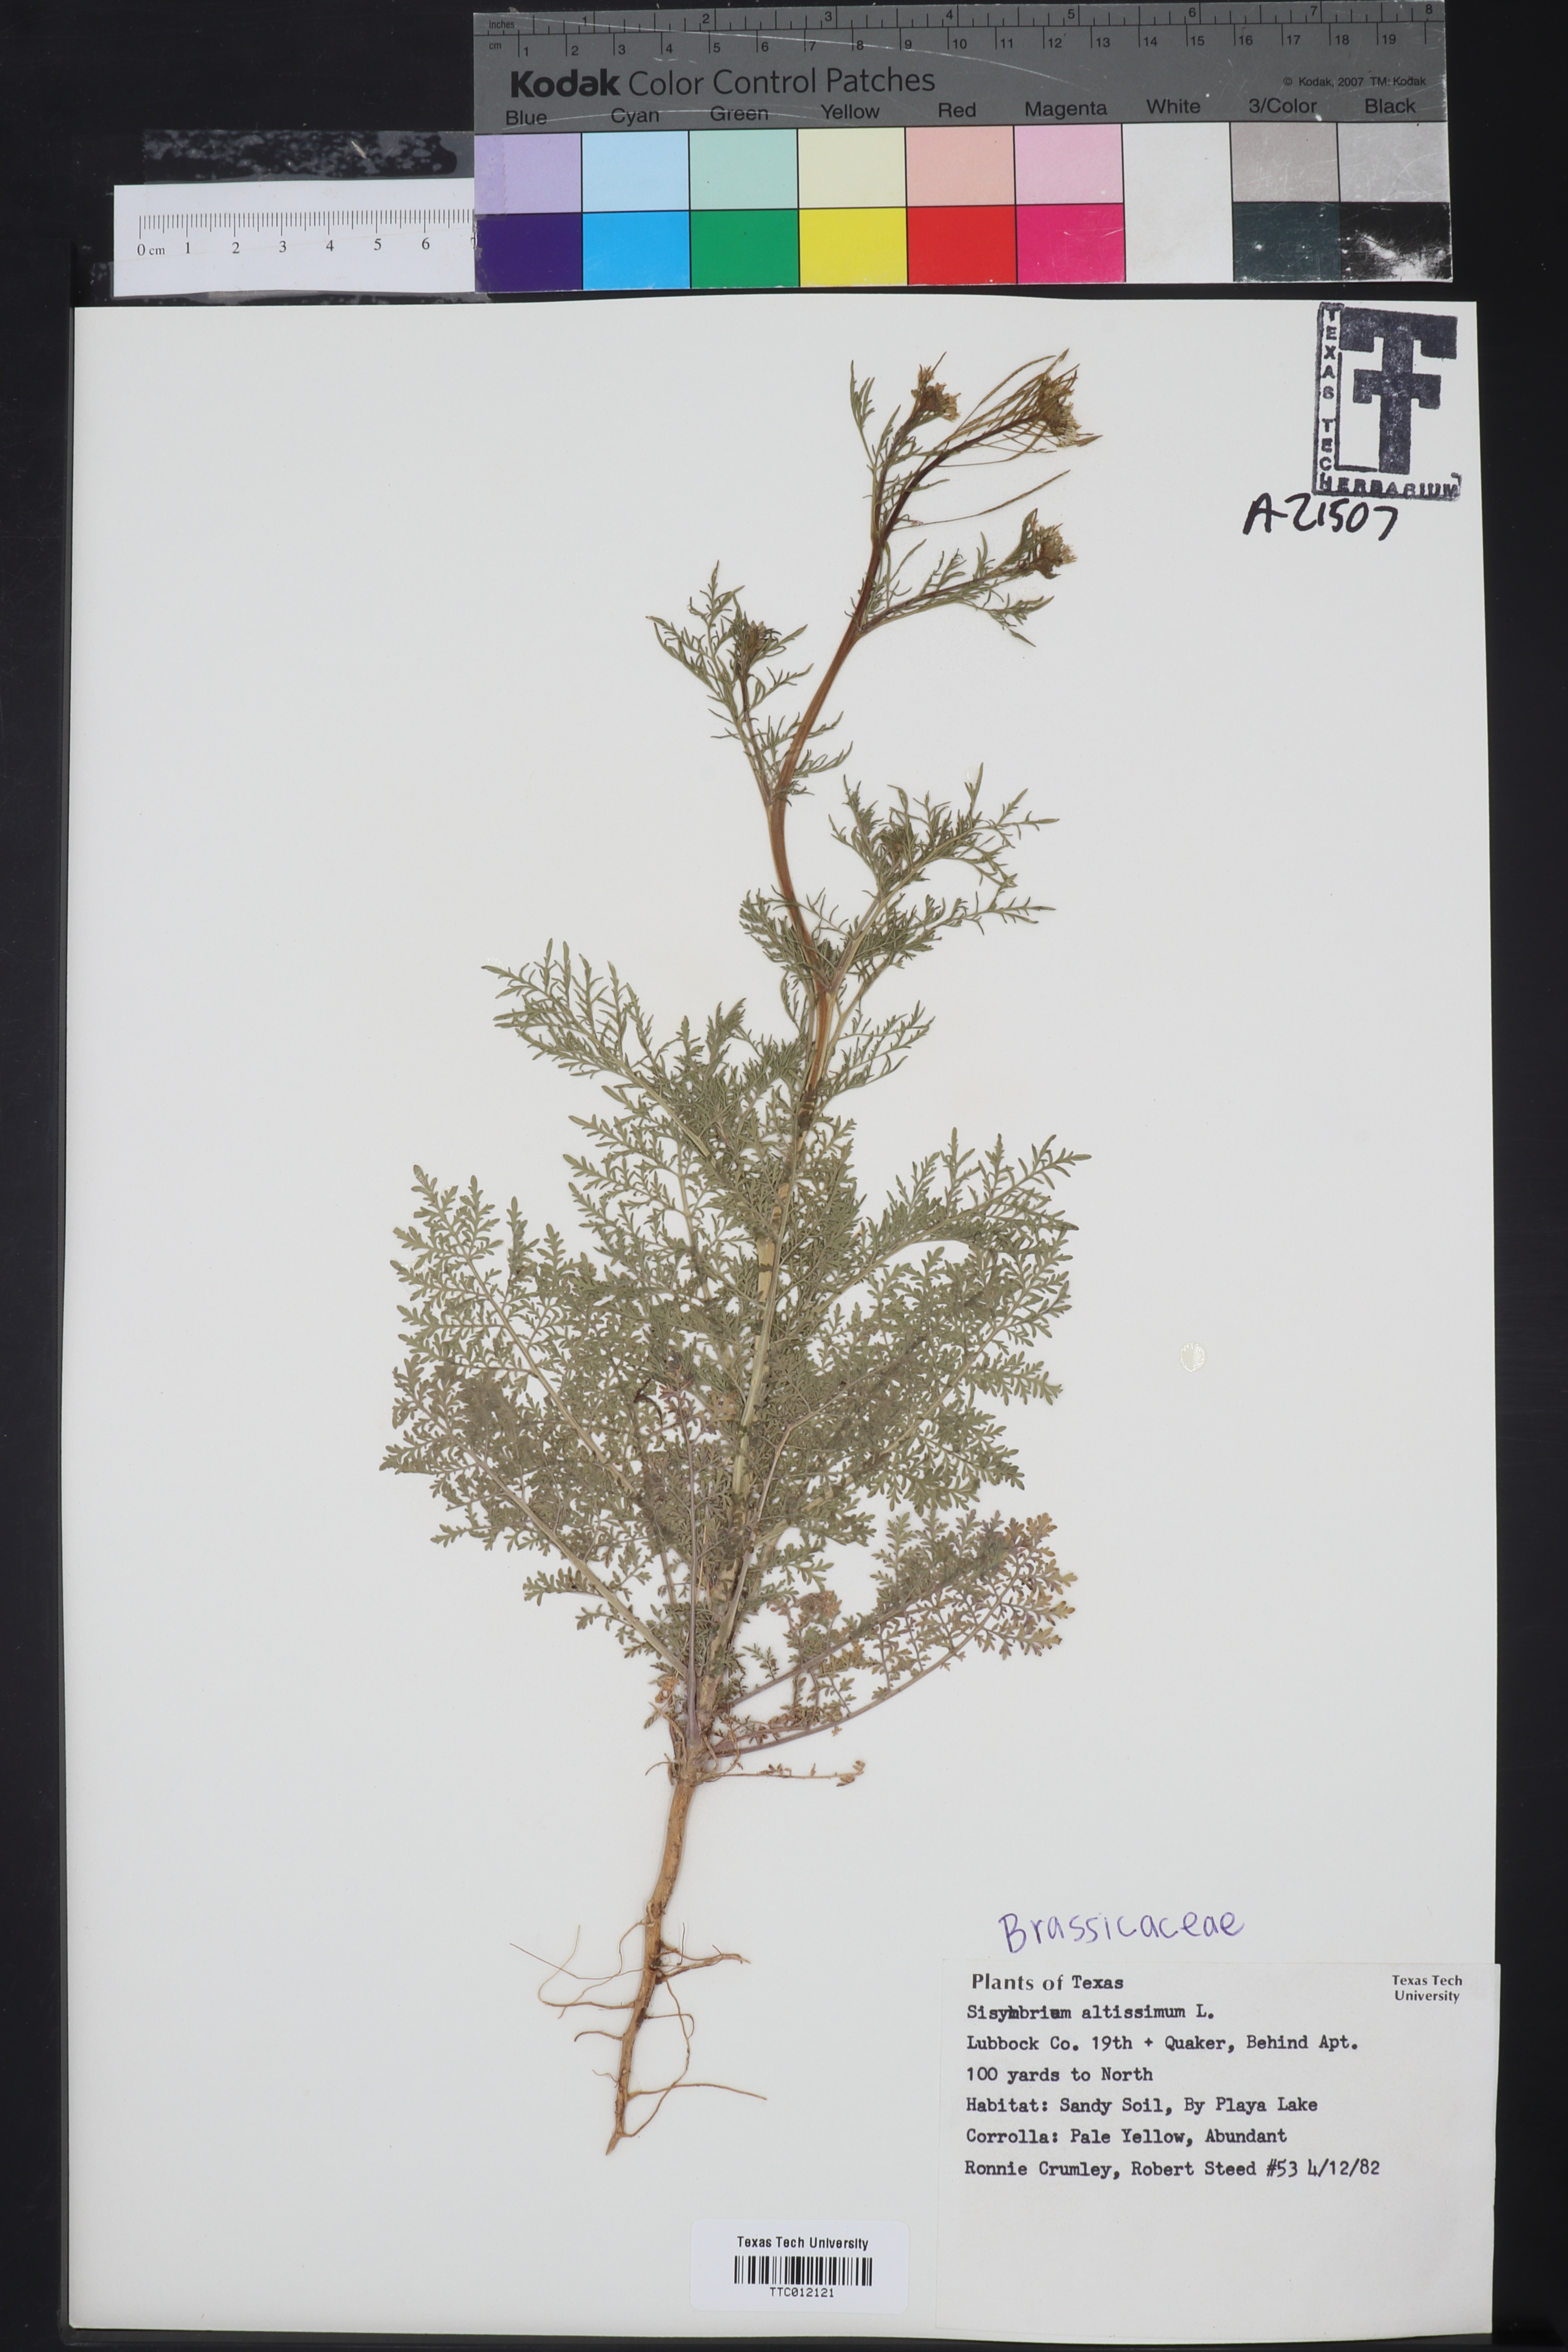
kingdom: Plantae
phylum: Tracheophyta
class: Magnoliopsida
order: Brassicales
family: Brassicaceae
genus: Sisymbrium
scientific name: Sisymbrium altissimum
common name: Tall rocket
